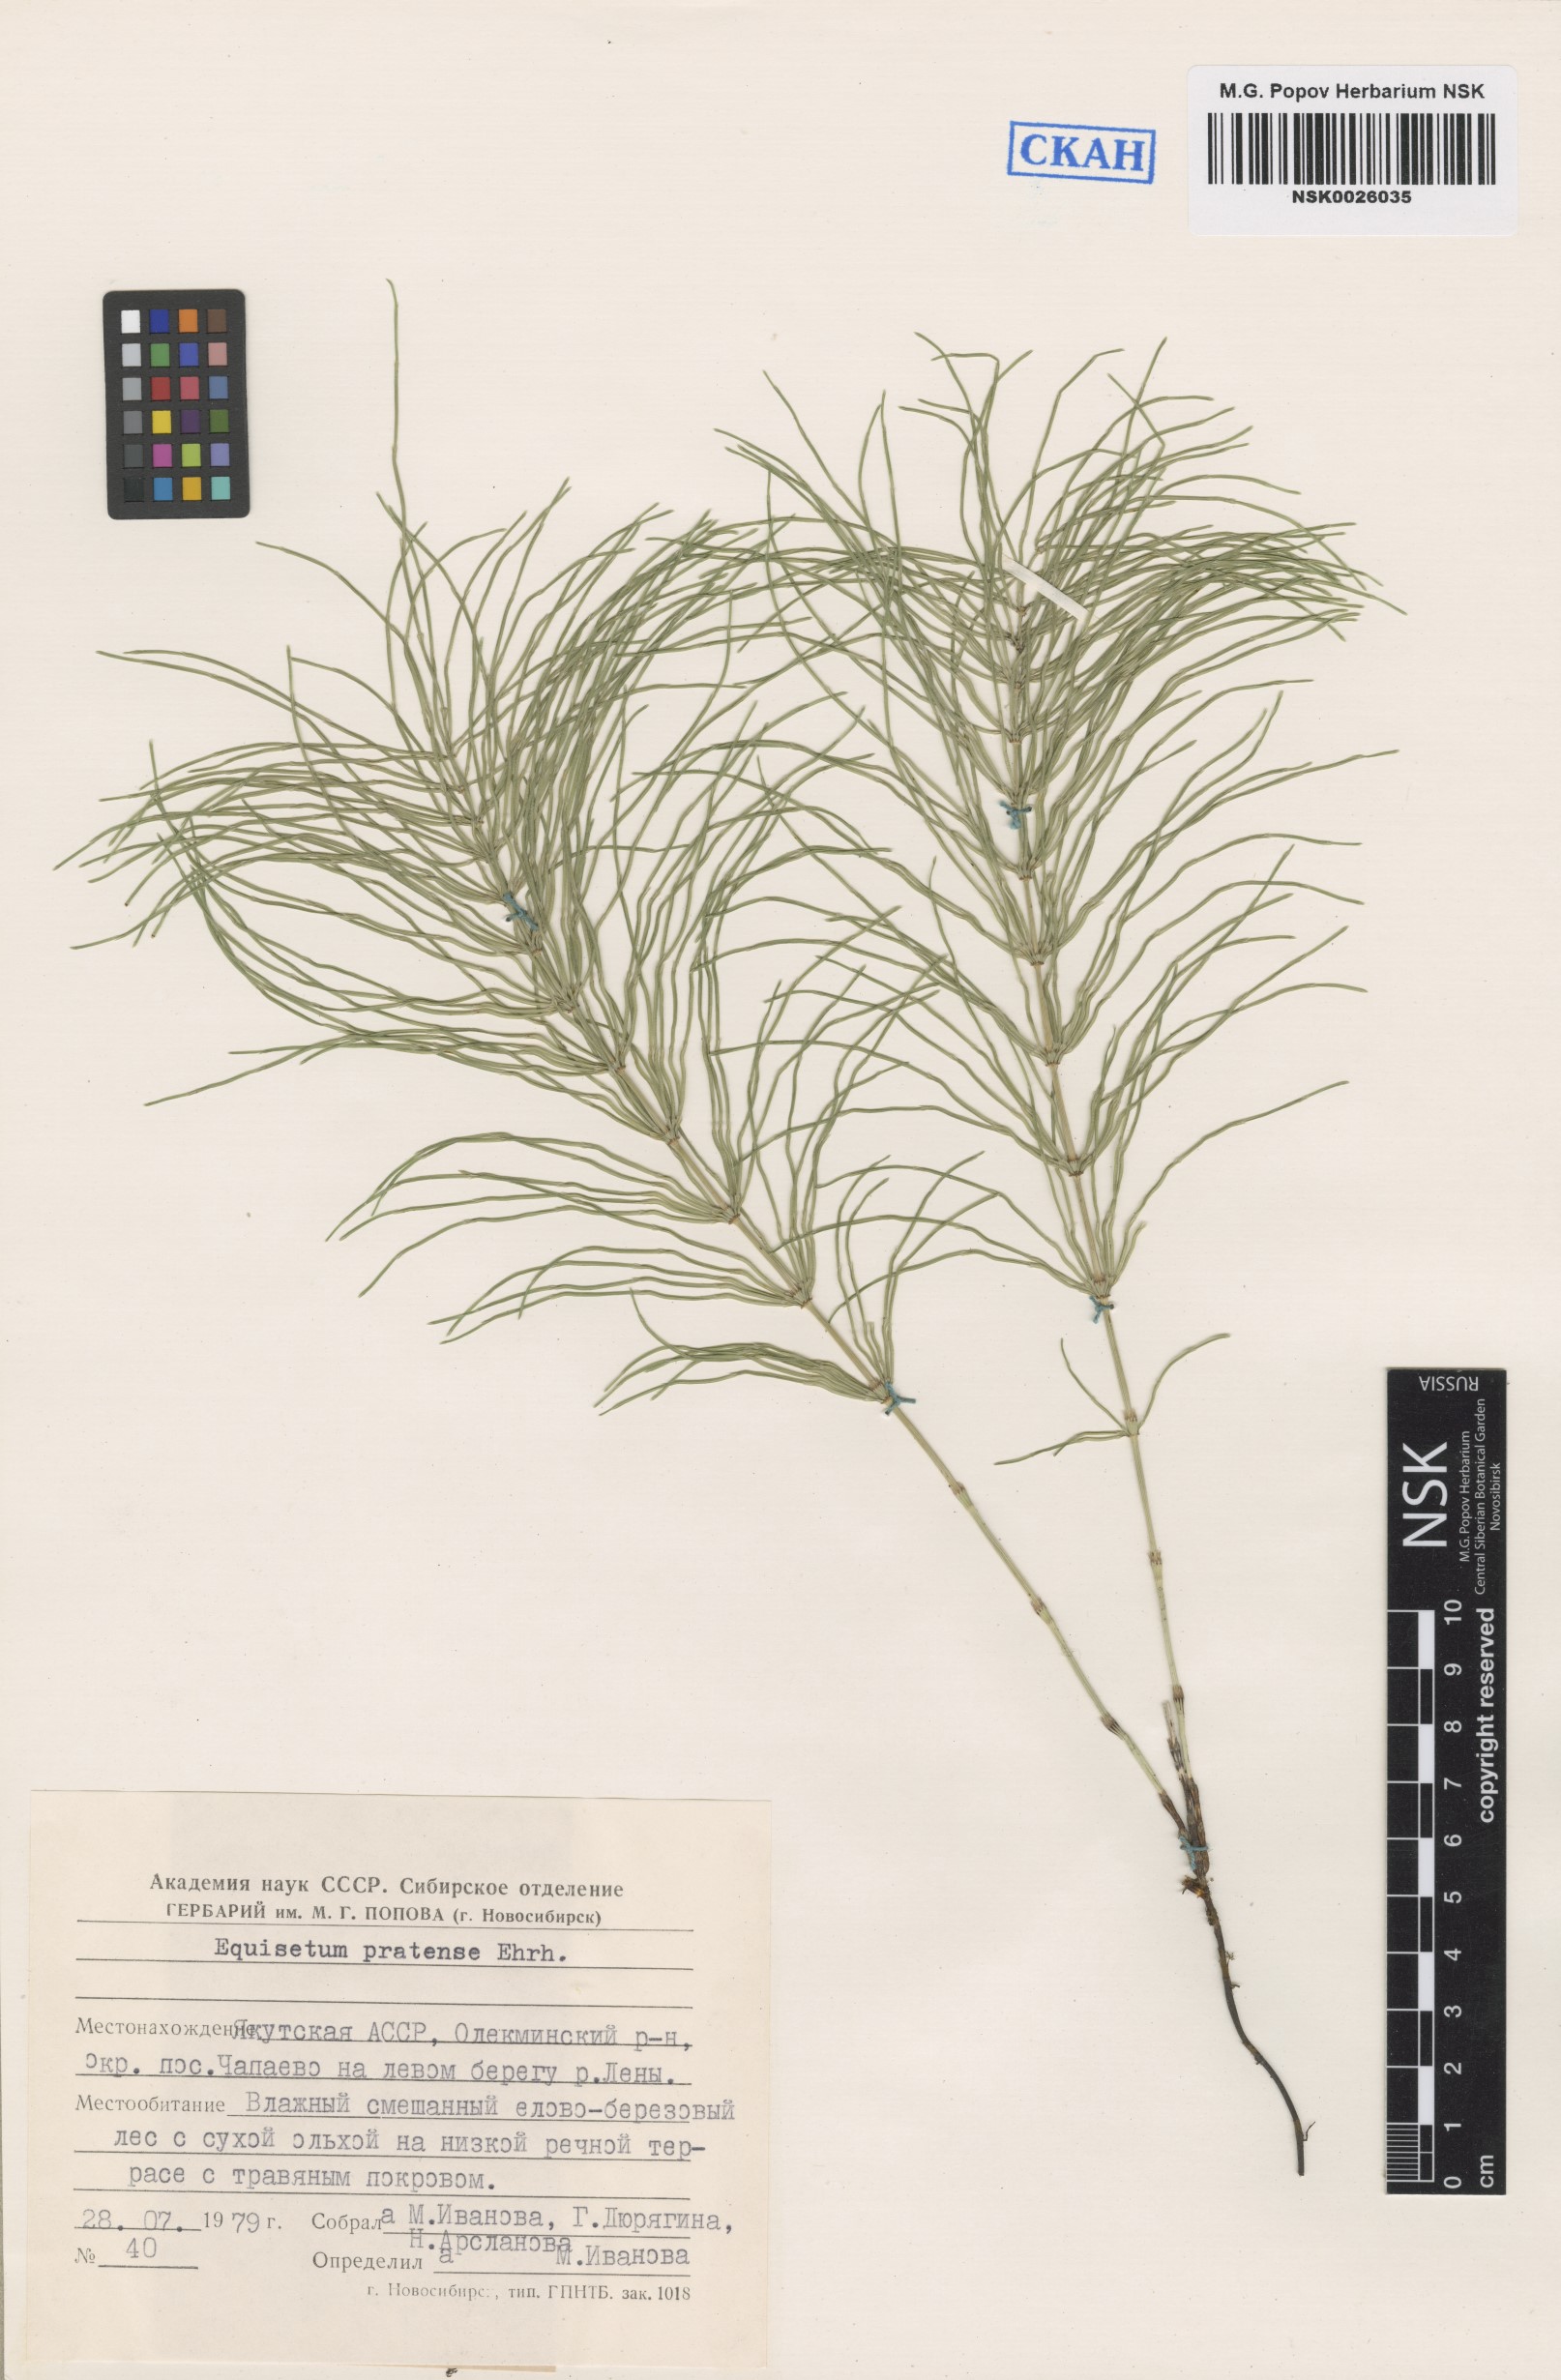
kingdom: Plantae
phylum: Tracheophyta
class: Polypodiopsida
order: Equisetales
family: Equisetaceae
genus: Equisetum
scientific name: Equisetum pratense
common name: Meadow horsetail
